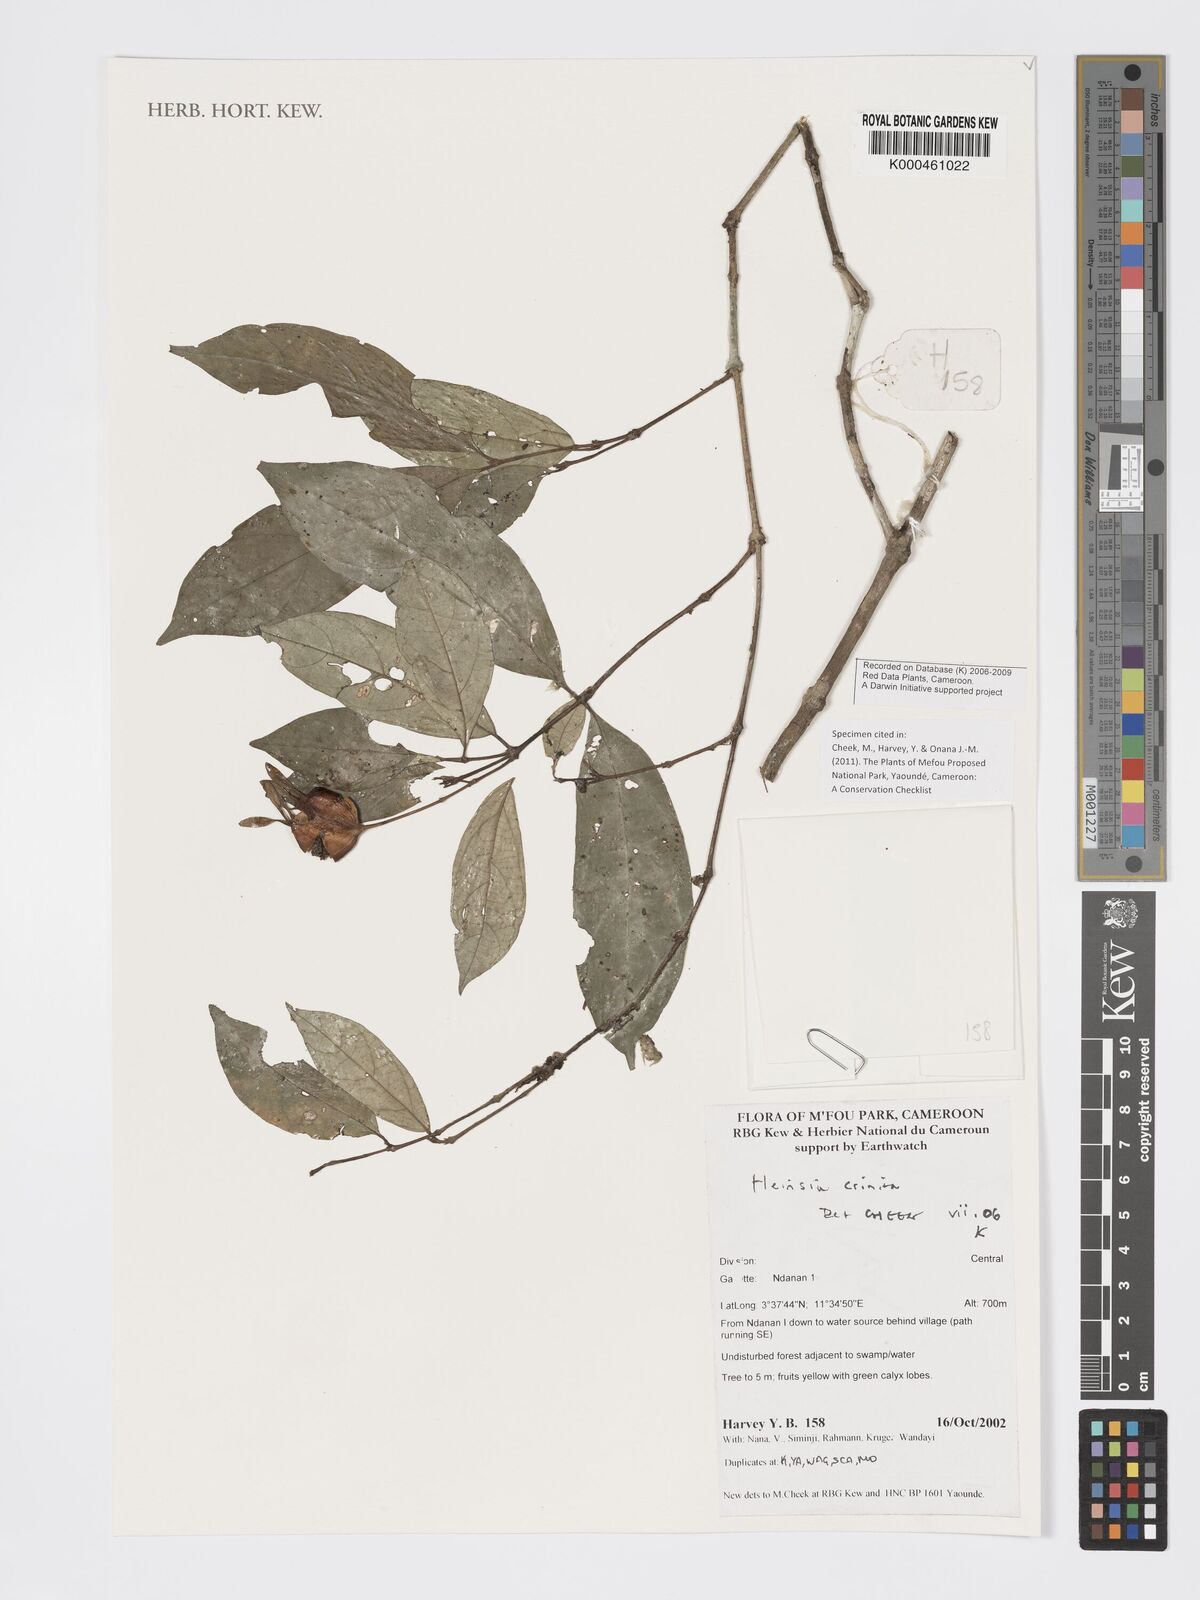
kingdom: Plantae
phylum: Tracheophyta
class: Magnoliopsida
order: Gentianales
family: Rubiaceae
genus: Heinsia
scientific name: Heinsia crinita
